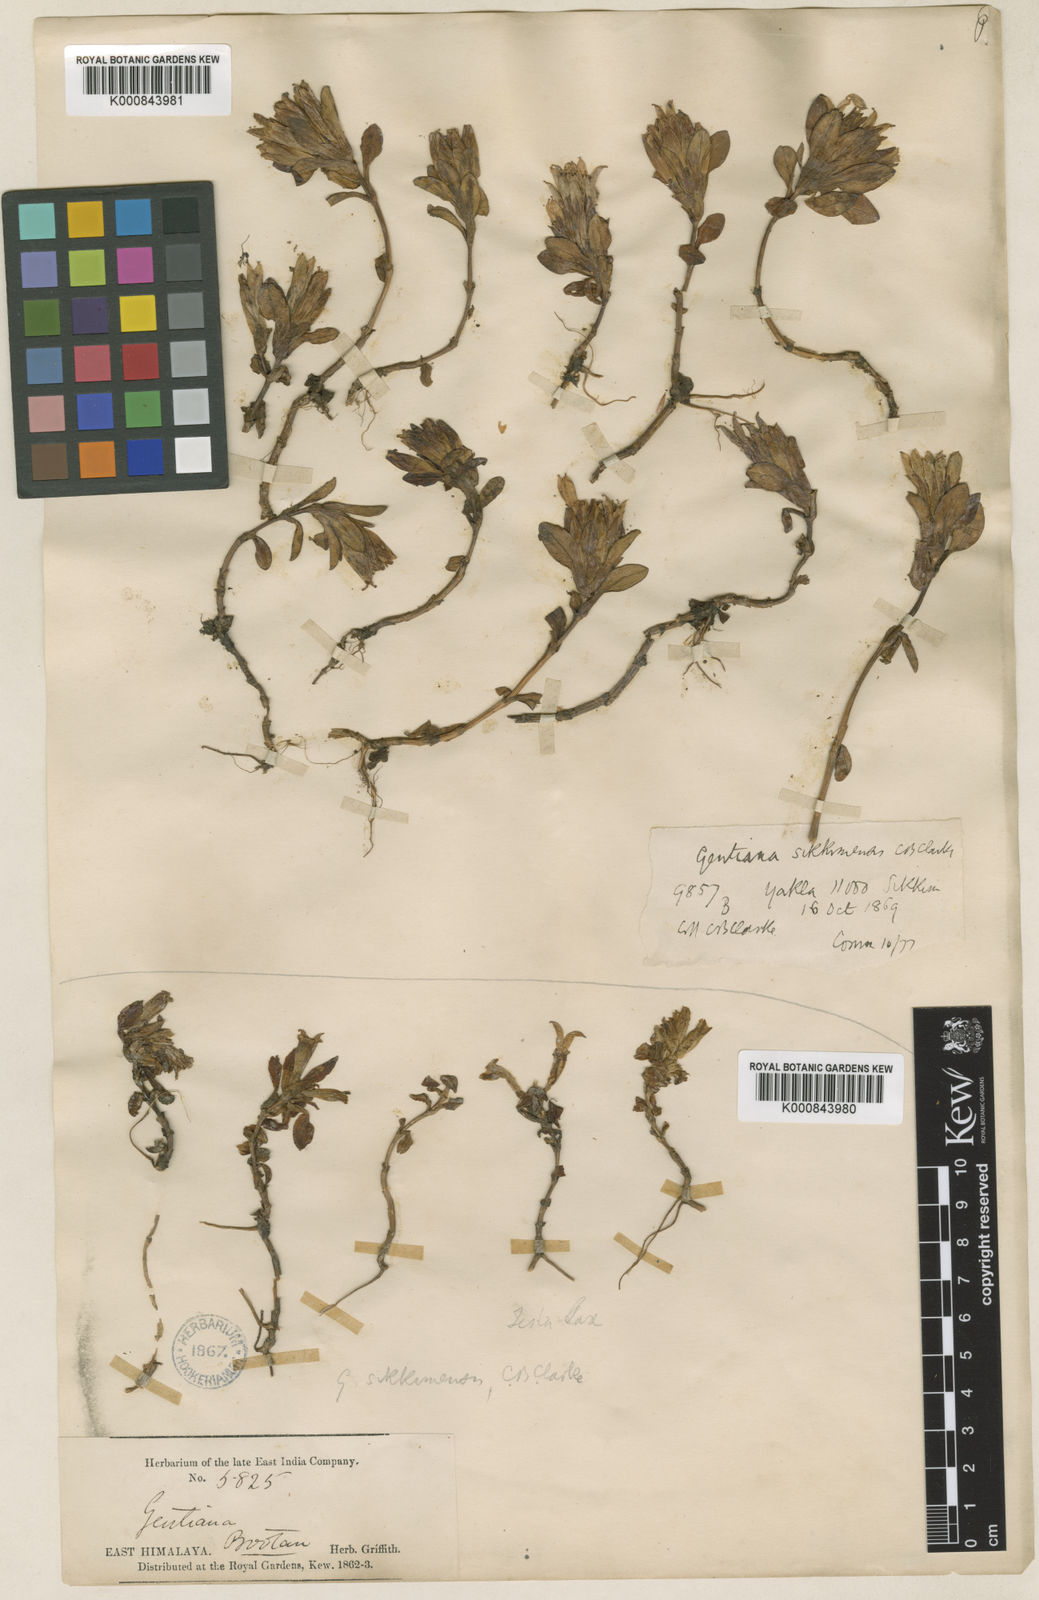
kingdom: Plantae
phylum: Tracheophyta
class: Magnoliopsida
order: Gentianales
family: Gentianaceae
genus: Gentiana
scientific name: Gentiana sikkimensis
